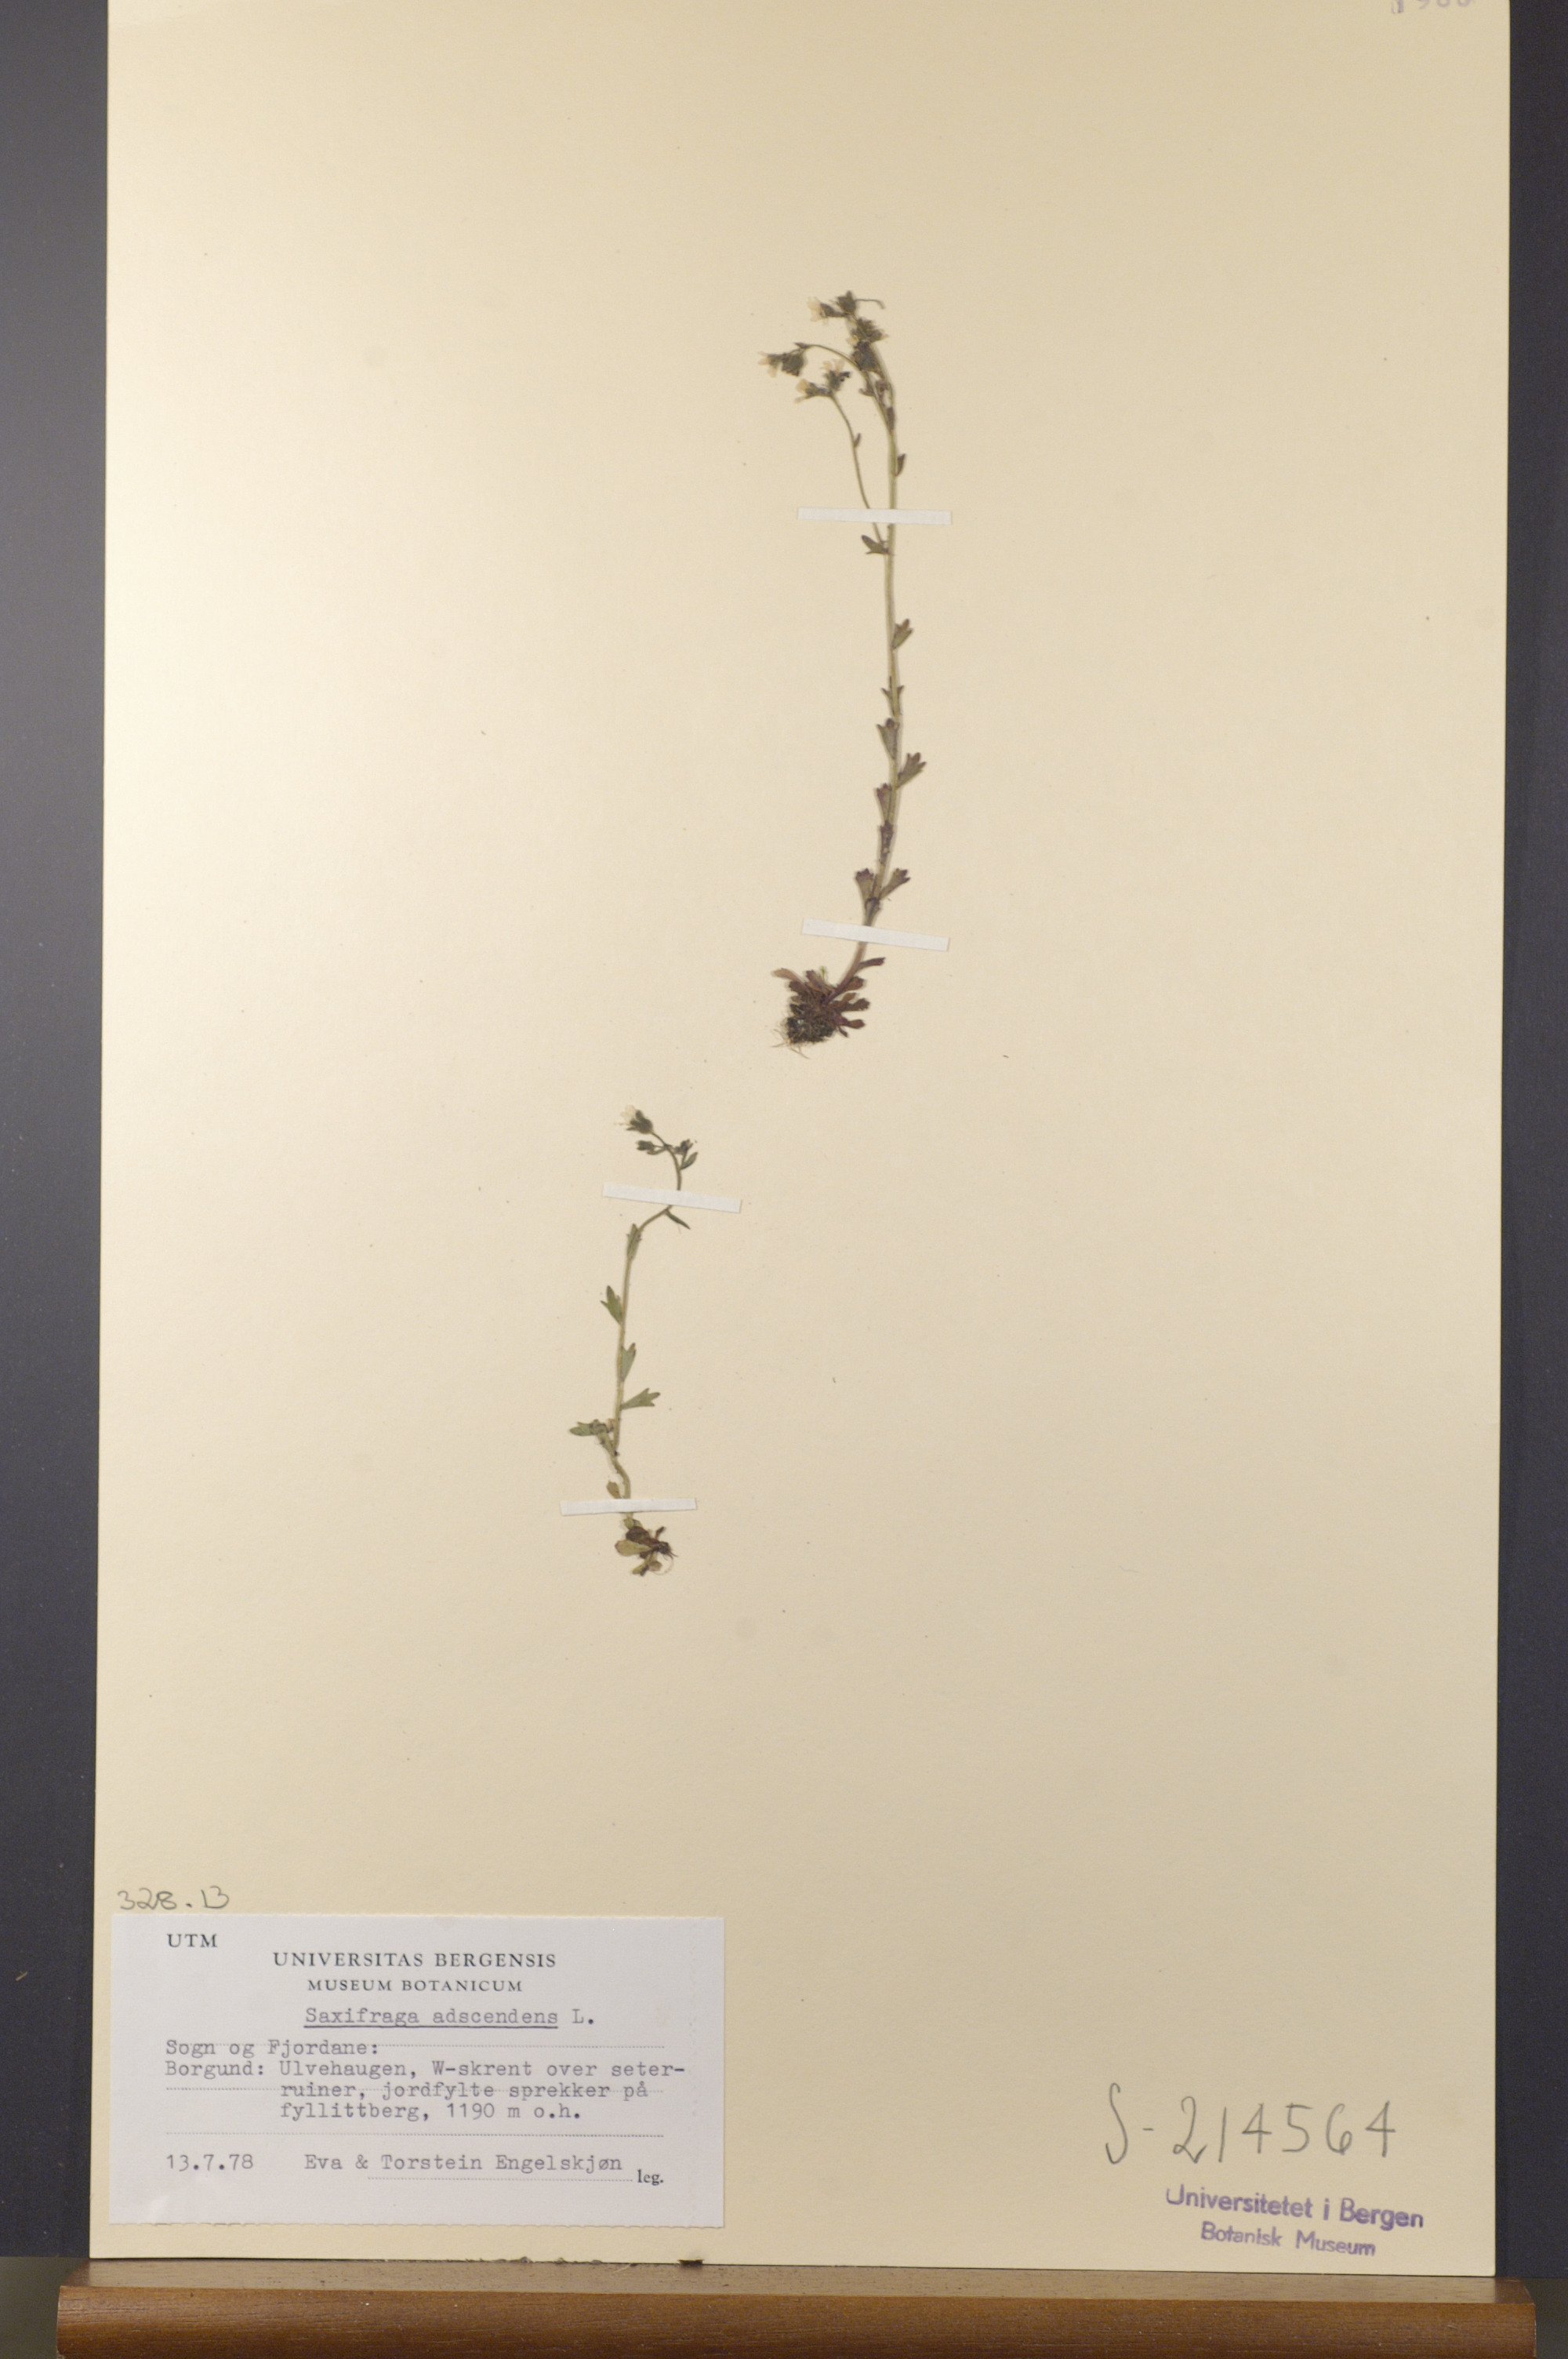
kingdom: Plantae
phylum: Tracheophyta
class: Magnoliopsida
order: Saxifragales
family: Saxifragaceae
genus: Saxifraga
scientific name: Saxifraga adscendens
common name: Ascending saxifrage
